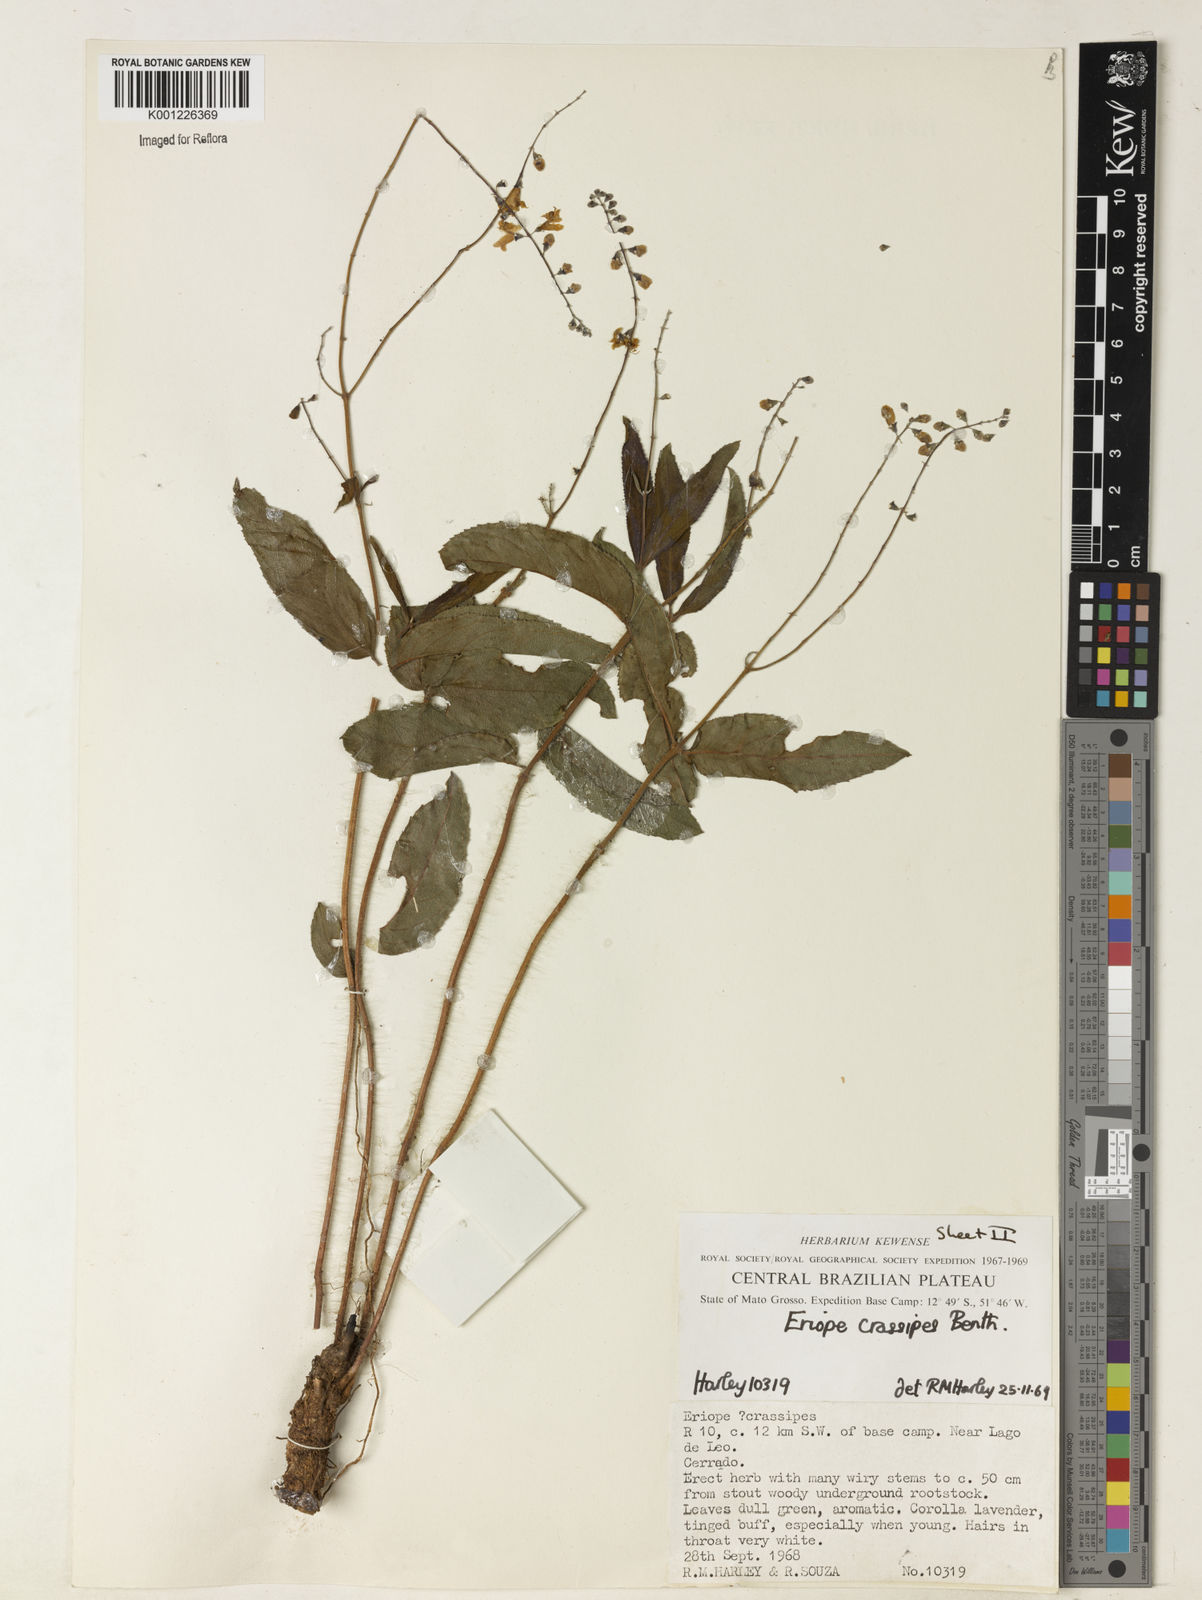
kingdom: Plantae
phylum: Tracheophyta
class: Magnoliopsida
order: Lamiales
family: Lamiaceae
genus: Eriope
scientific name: Eriope crassipes
